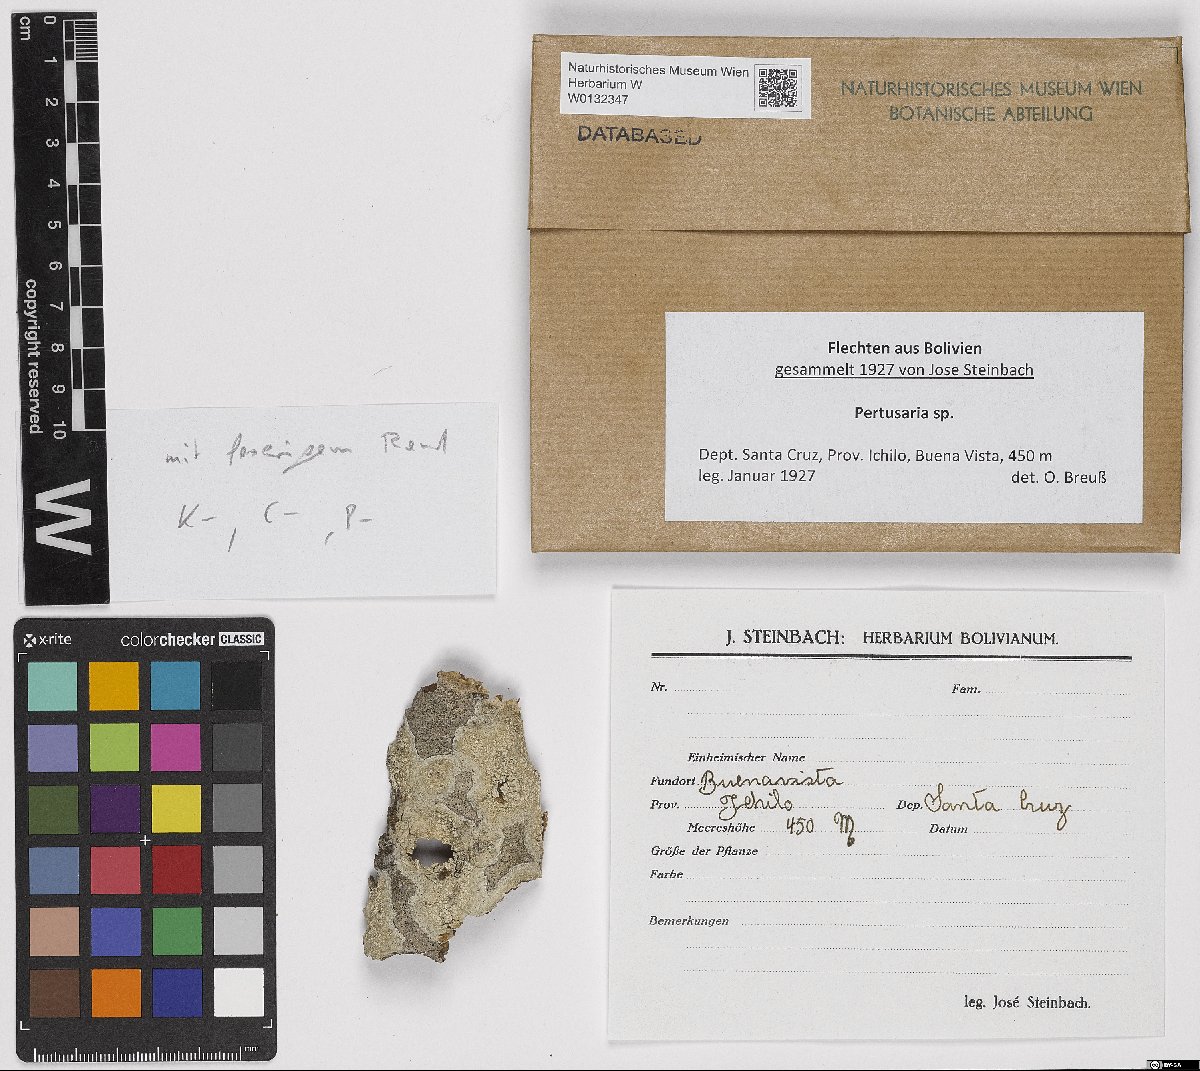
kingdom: Fungi
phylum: Ascomycota
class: Lecanoromycetes
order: Pertusariales
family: Pertusariaceae
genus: Pertusaria
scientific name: Pertusaria
